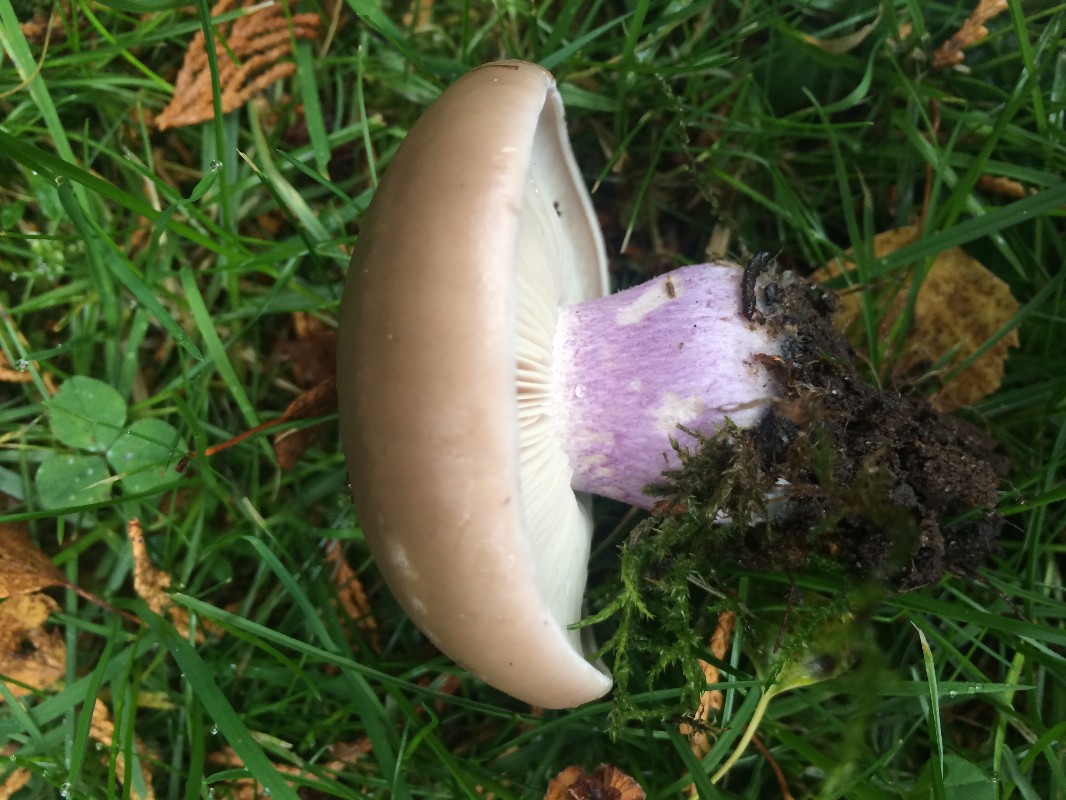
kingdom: Fungi
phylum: Basidiomycota
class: Agaricomycetes
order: Agaricales
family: Tricholomataceae
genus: Lepista
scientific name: Lepista personata
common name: bleg hekseringshat
